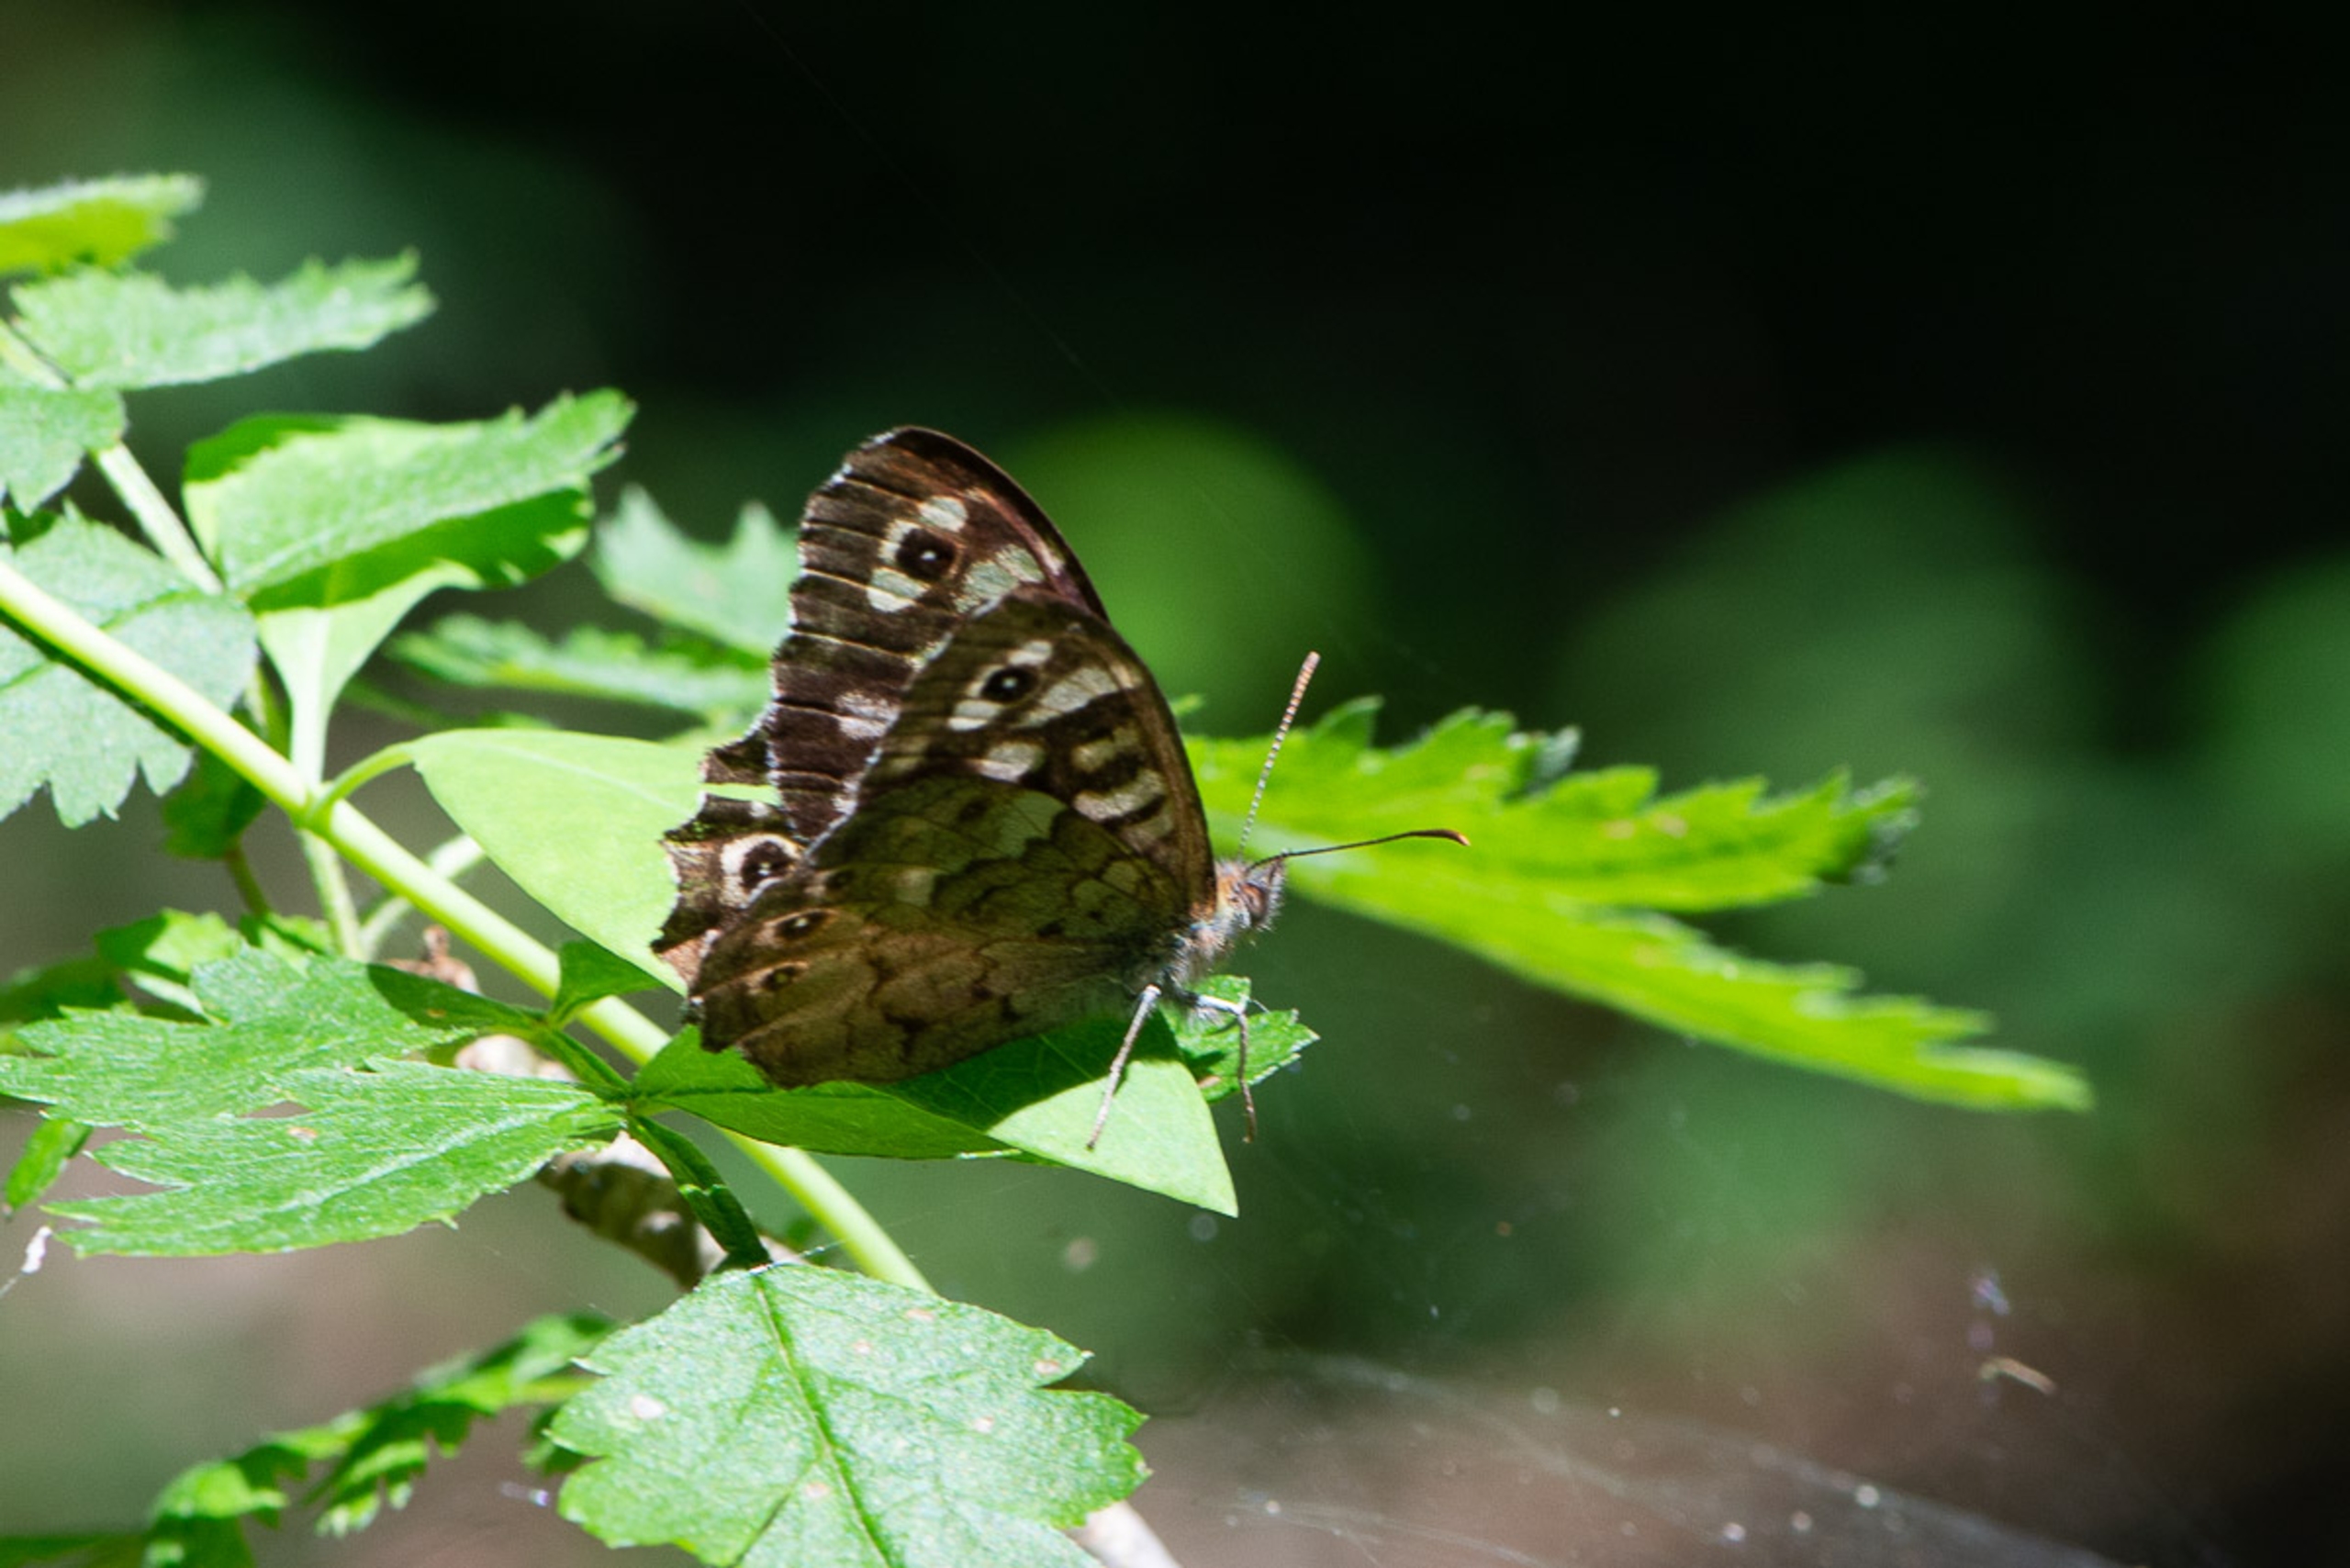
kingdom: Animalia
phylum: Arthropoda
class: Insecta
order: Lepidoptera
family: Nymphalidae
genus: Pararge
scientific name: Pararge aegeria
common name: Skovrandøje
